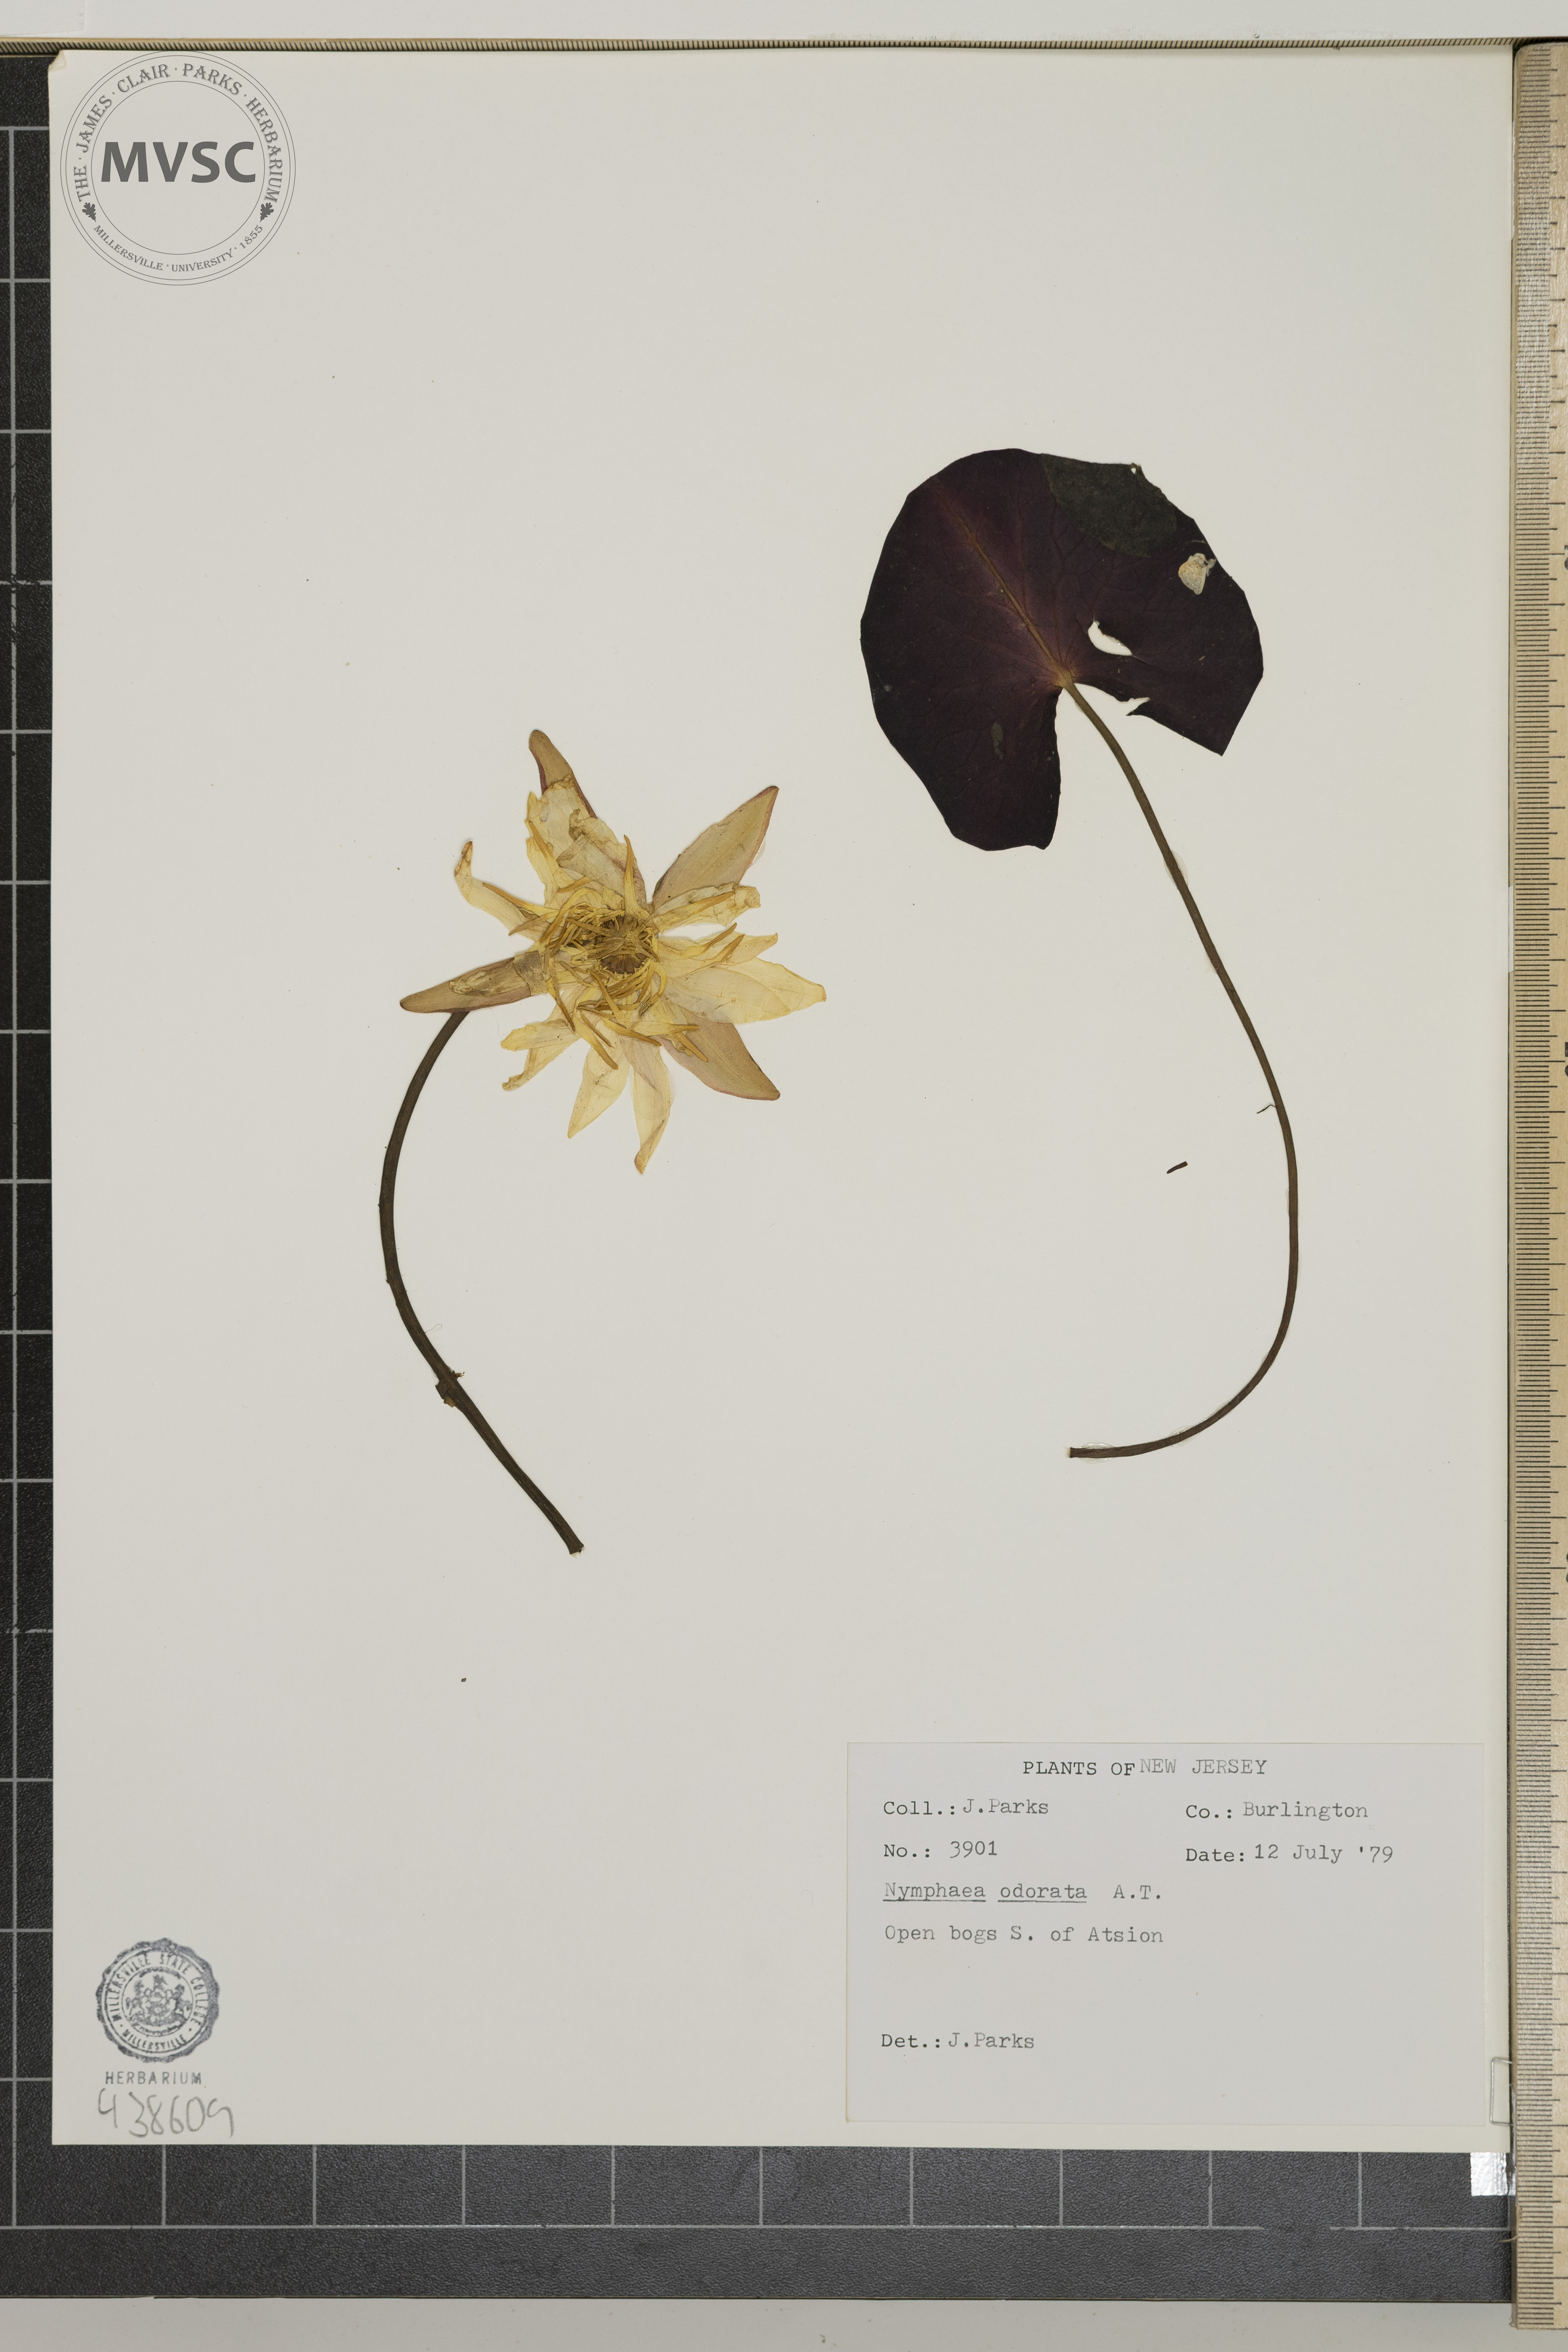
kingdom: Plantae
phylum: Tracheophyta
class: Magnoliopsida
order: Nymphaeales
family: Nymphaeaceae
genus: Nymphaea
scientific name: Nymphaea odorata
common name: Fragrant water-lily
